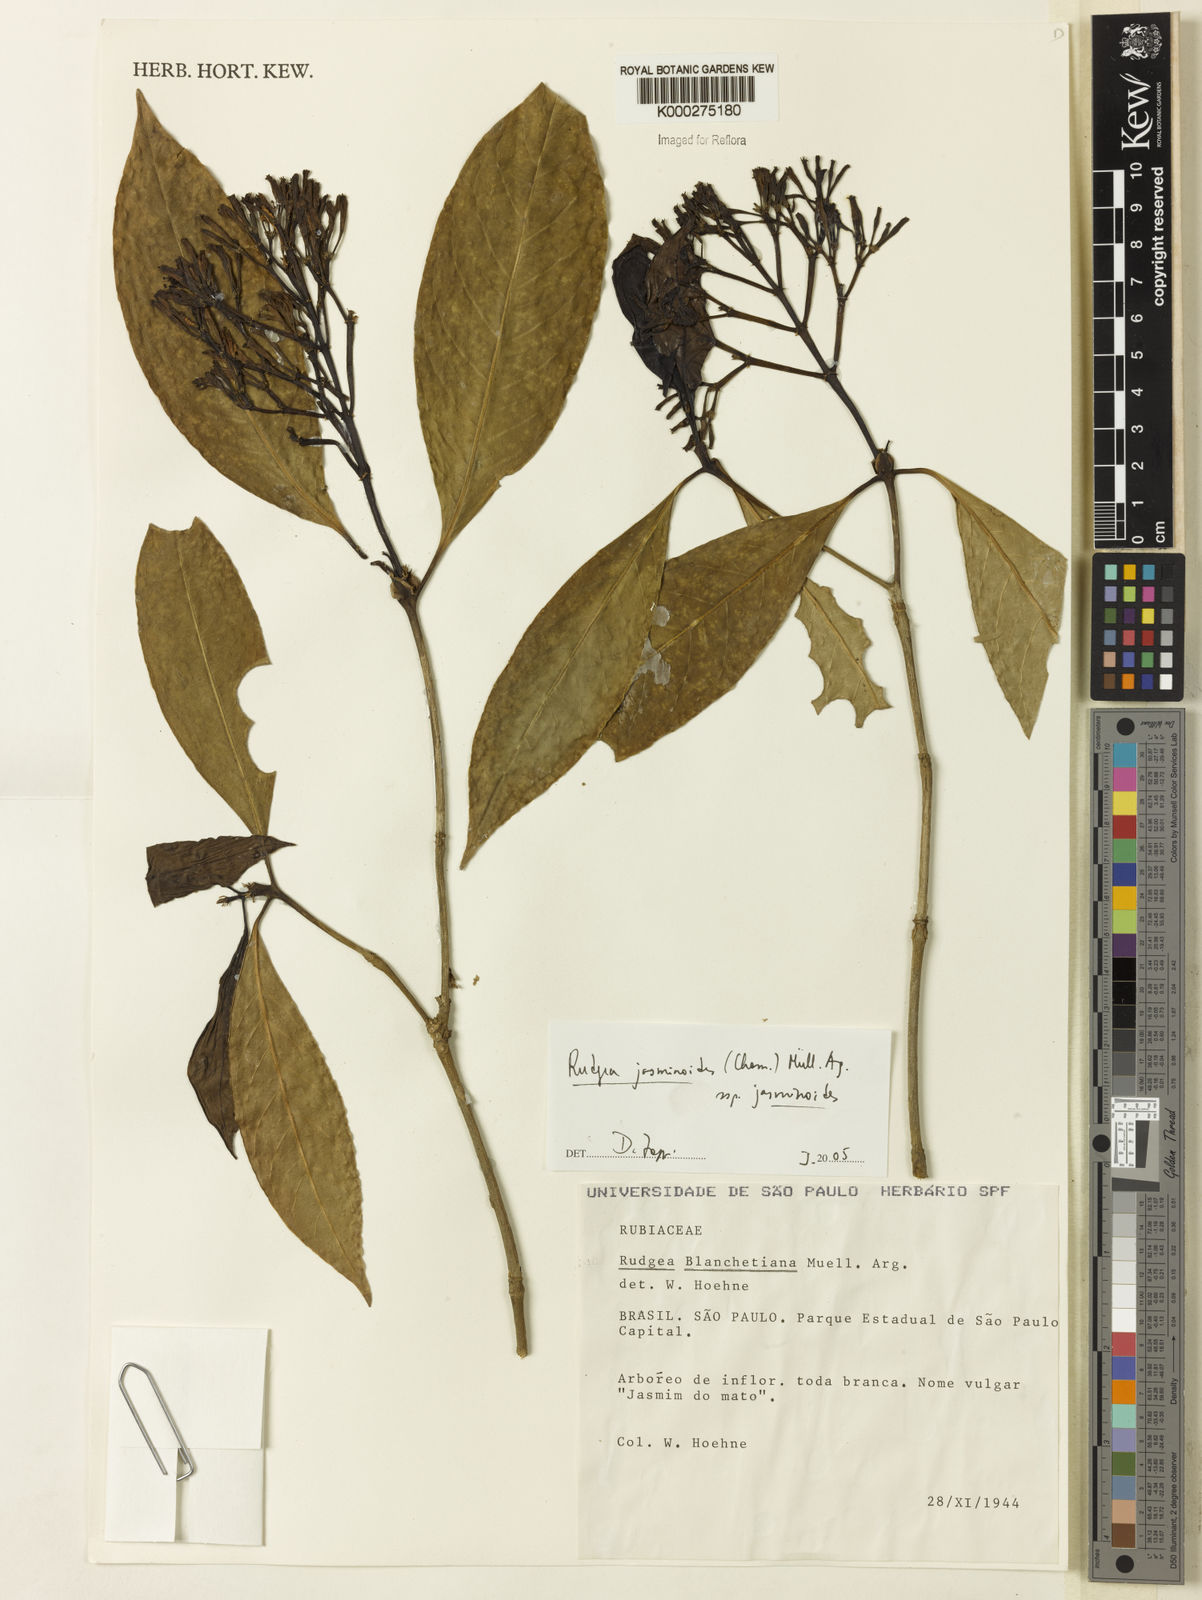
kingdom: Plantae
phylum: Tracheophyta
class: Magnoliopsida
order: Gentianales
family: Rubiaceae
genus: Rudgea
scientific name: Rudgea jasminoides
